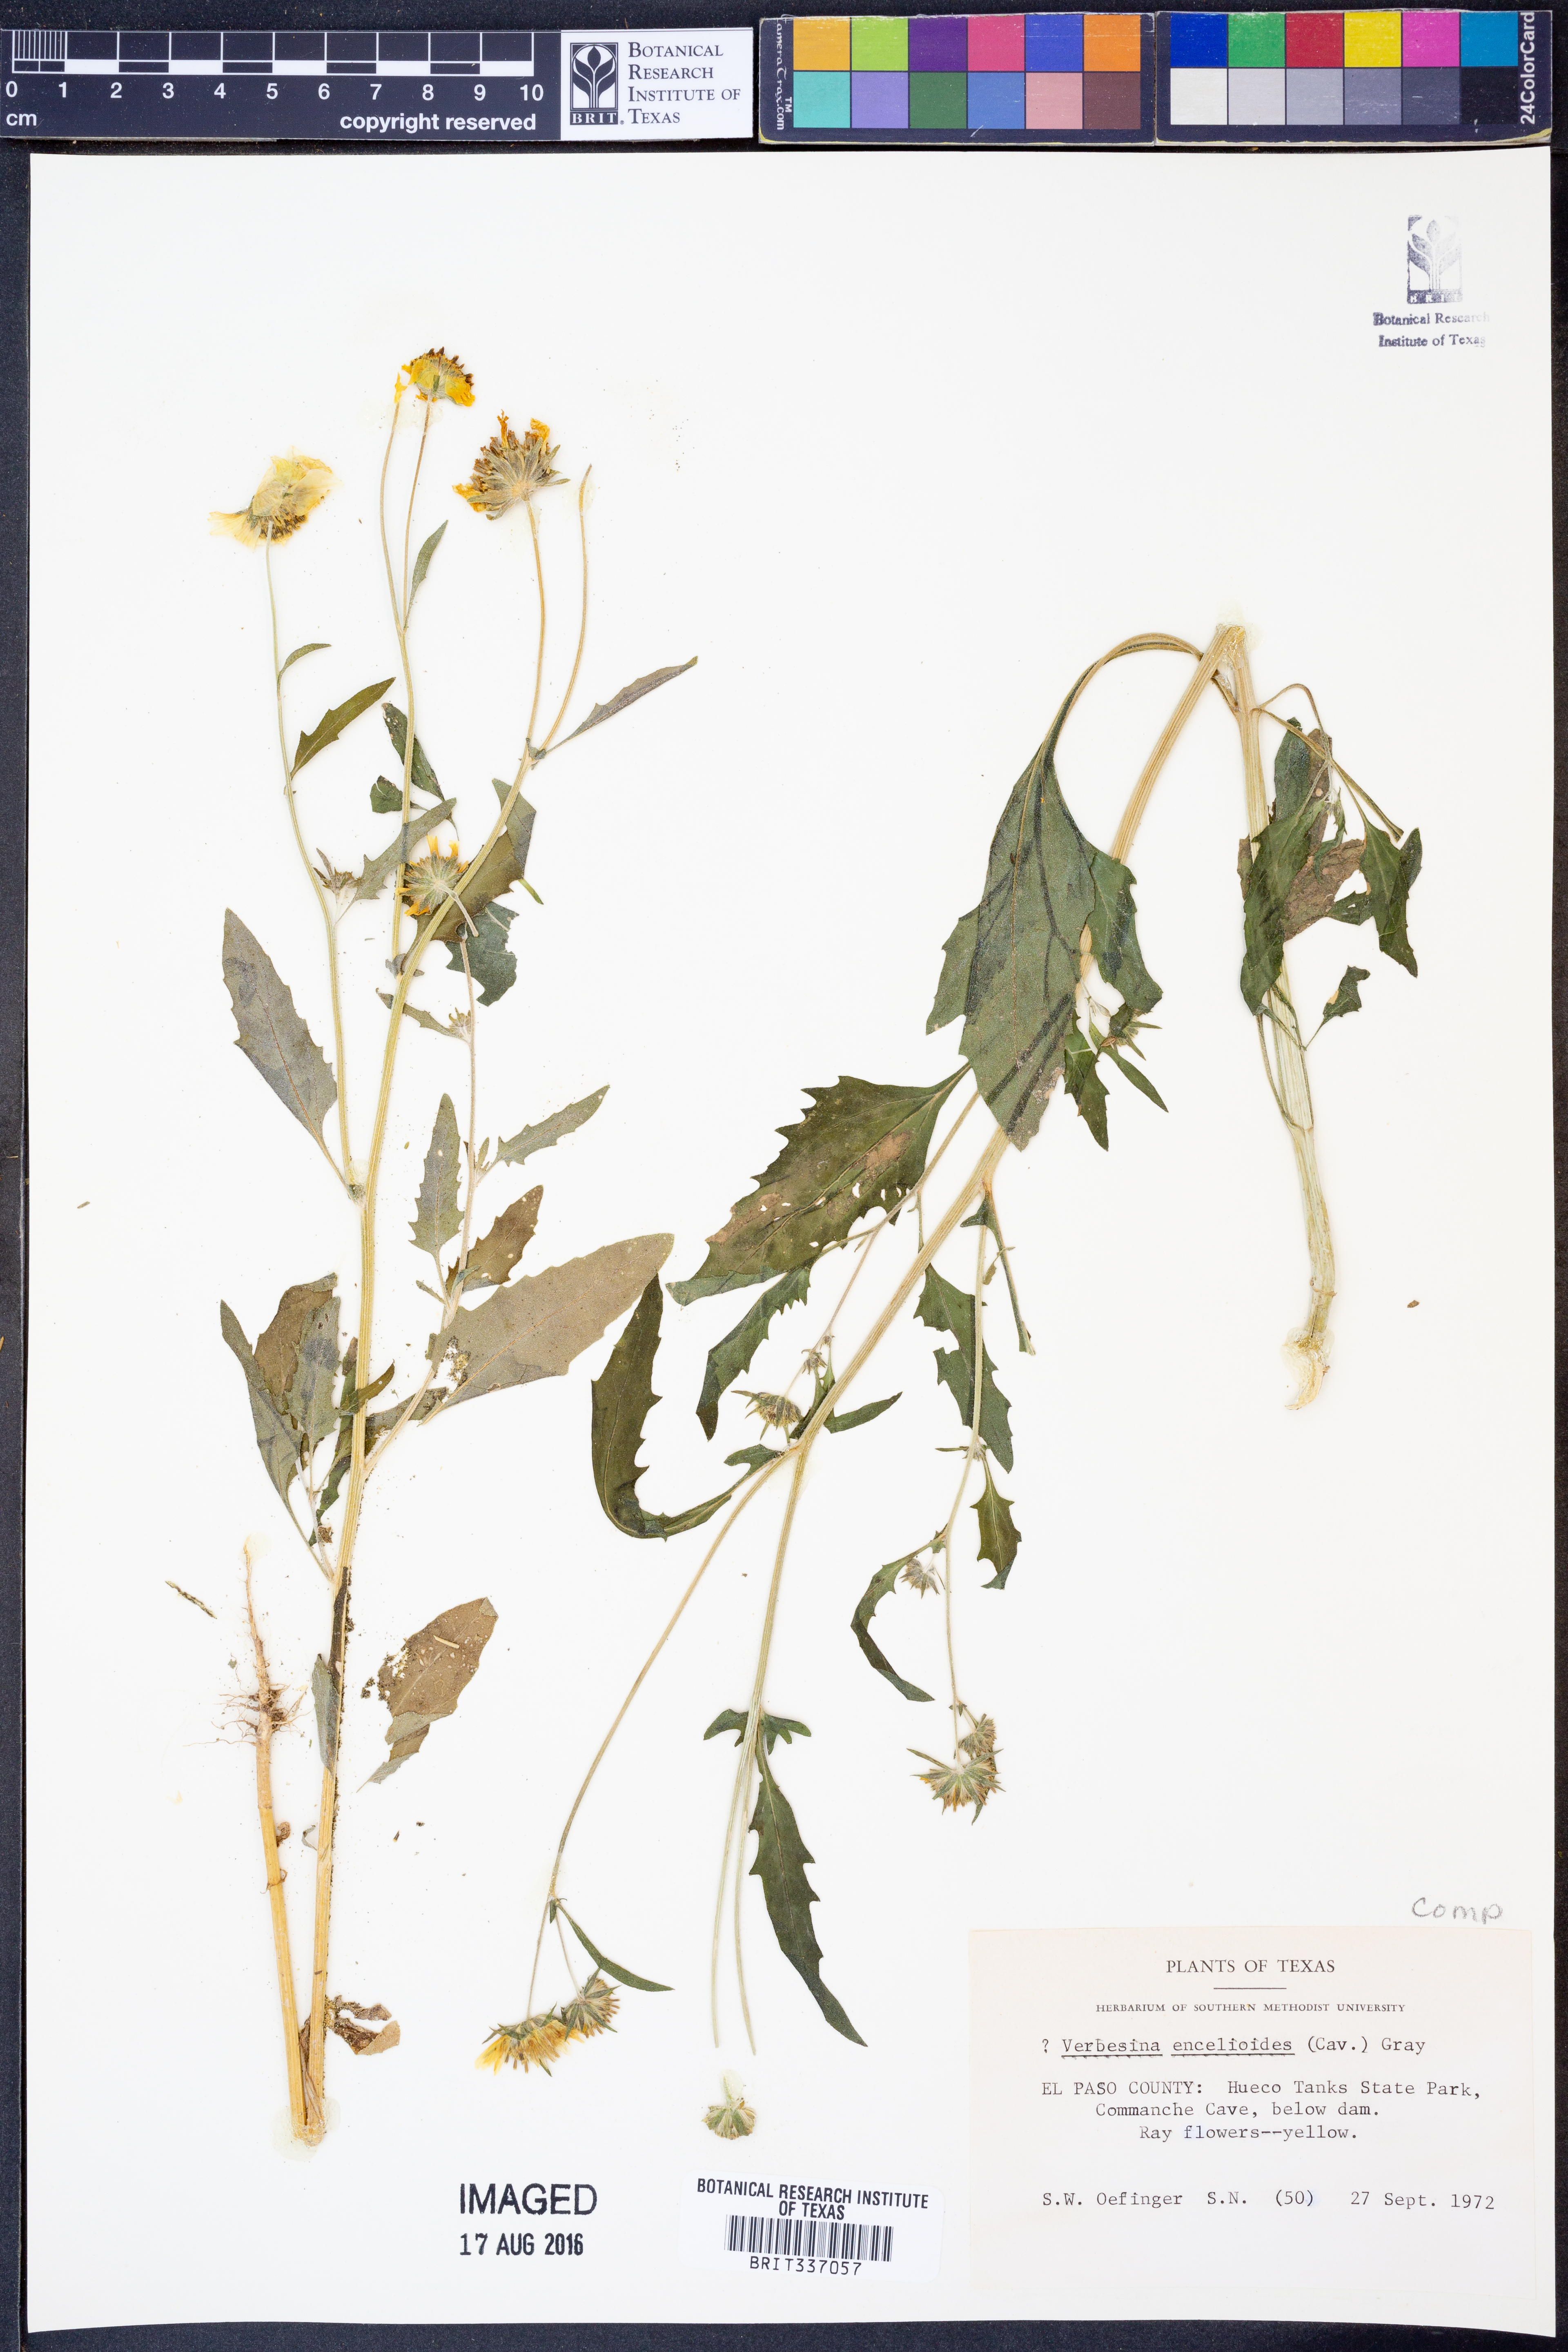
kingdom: Plantae
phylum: Tracheophyta
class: Magnoliopsida
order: Asterales
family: Asteraceae
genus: Verbesina
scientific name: Verbesina encelioides
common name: Golden crownbeard
